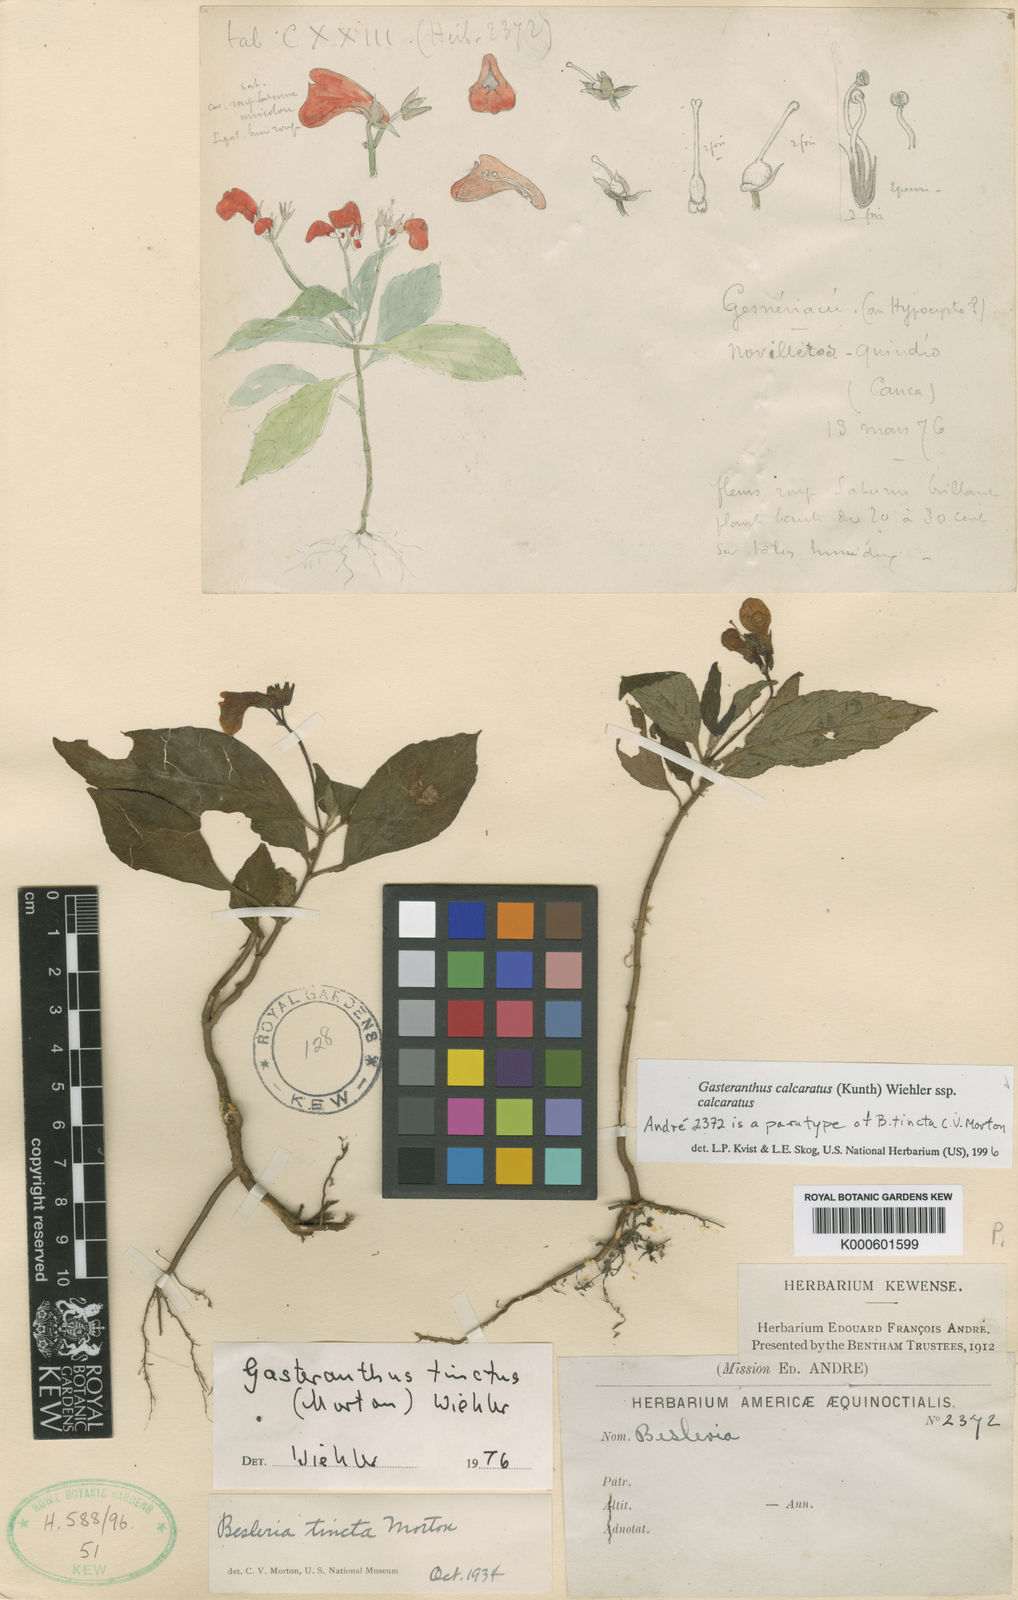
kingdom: Plantae
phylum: Tracheophyta
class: Magnoliopsida
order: Lamiales
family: Gesneriaceae
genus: Gasteranthus
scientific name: Gasteranthus calcaratus
